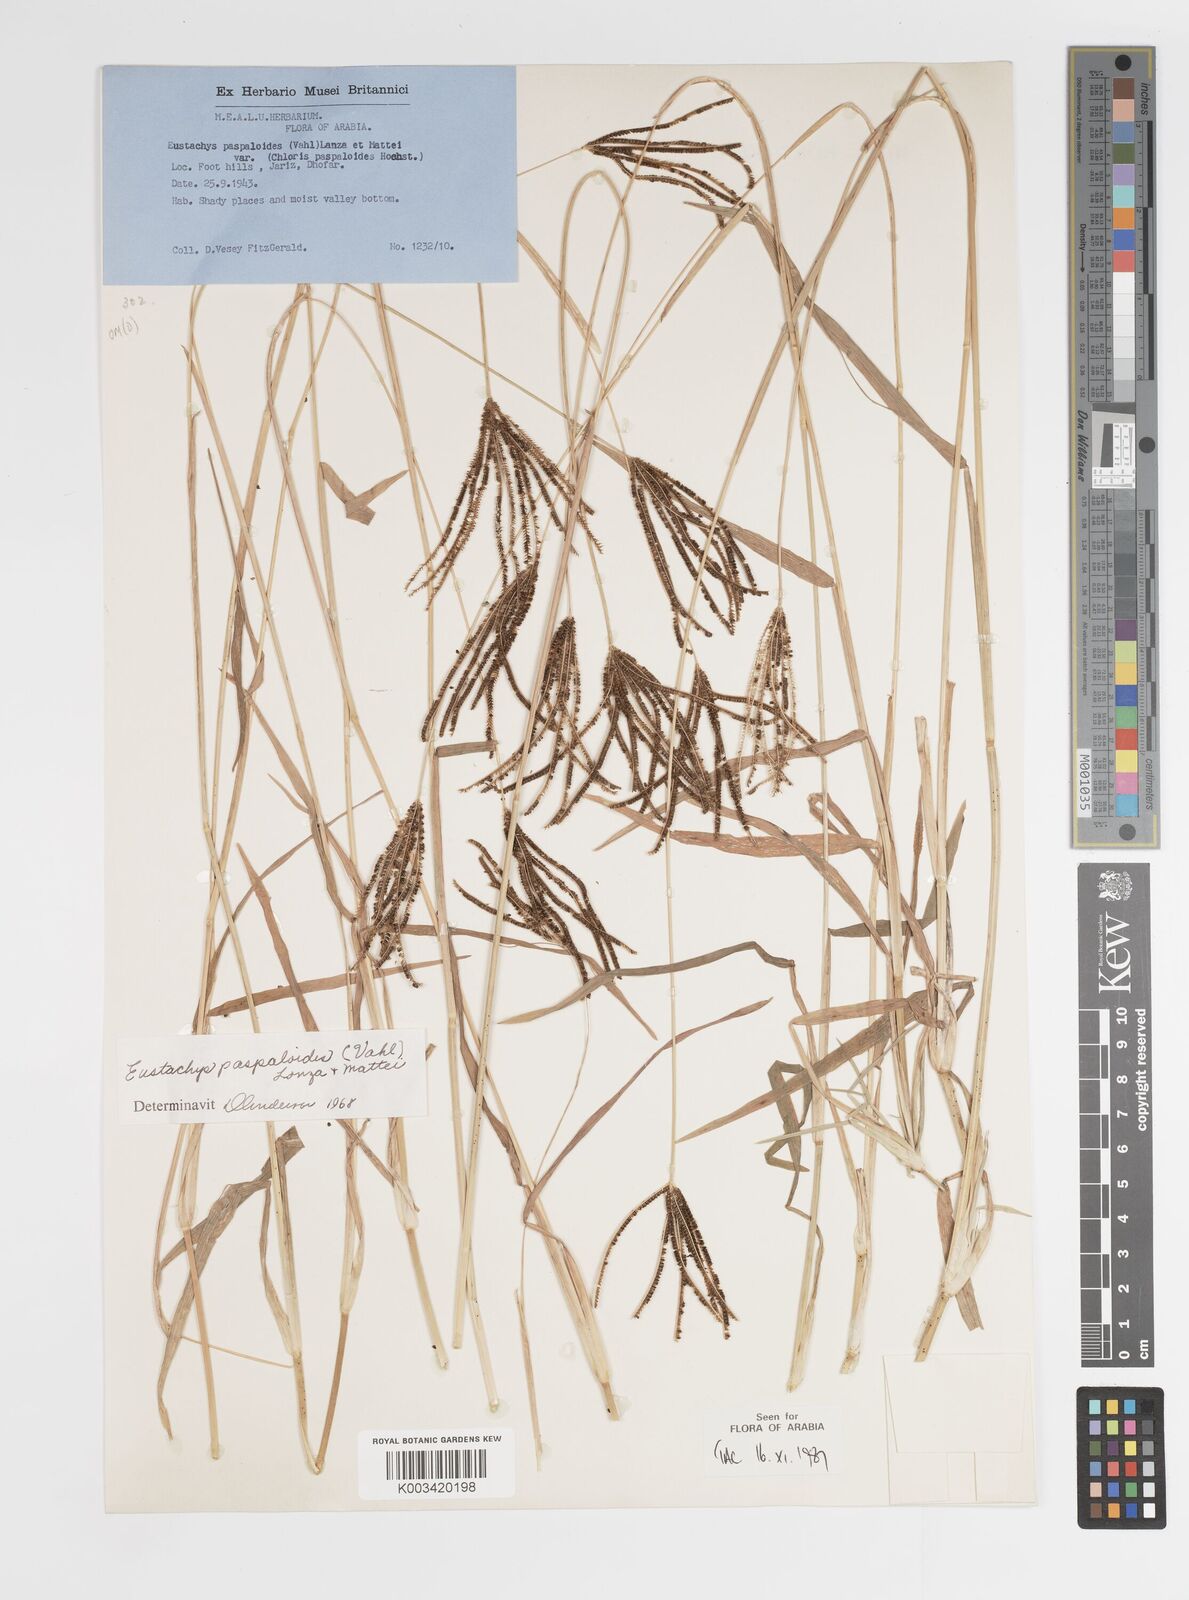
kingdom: Plantae
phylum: Tracheophyta
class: Liliopsida
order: Poales
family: Poaceae
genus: Eustachys
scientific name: Eustachys paspaloides
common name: Caribbean fingergrass
